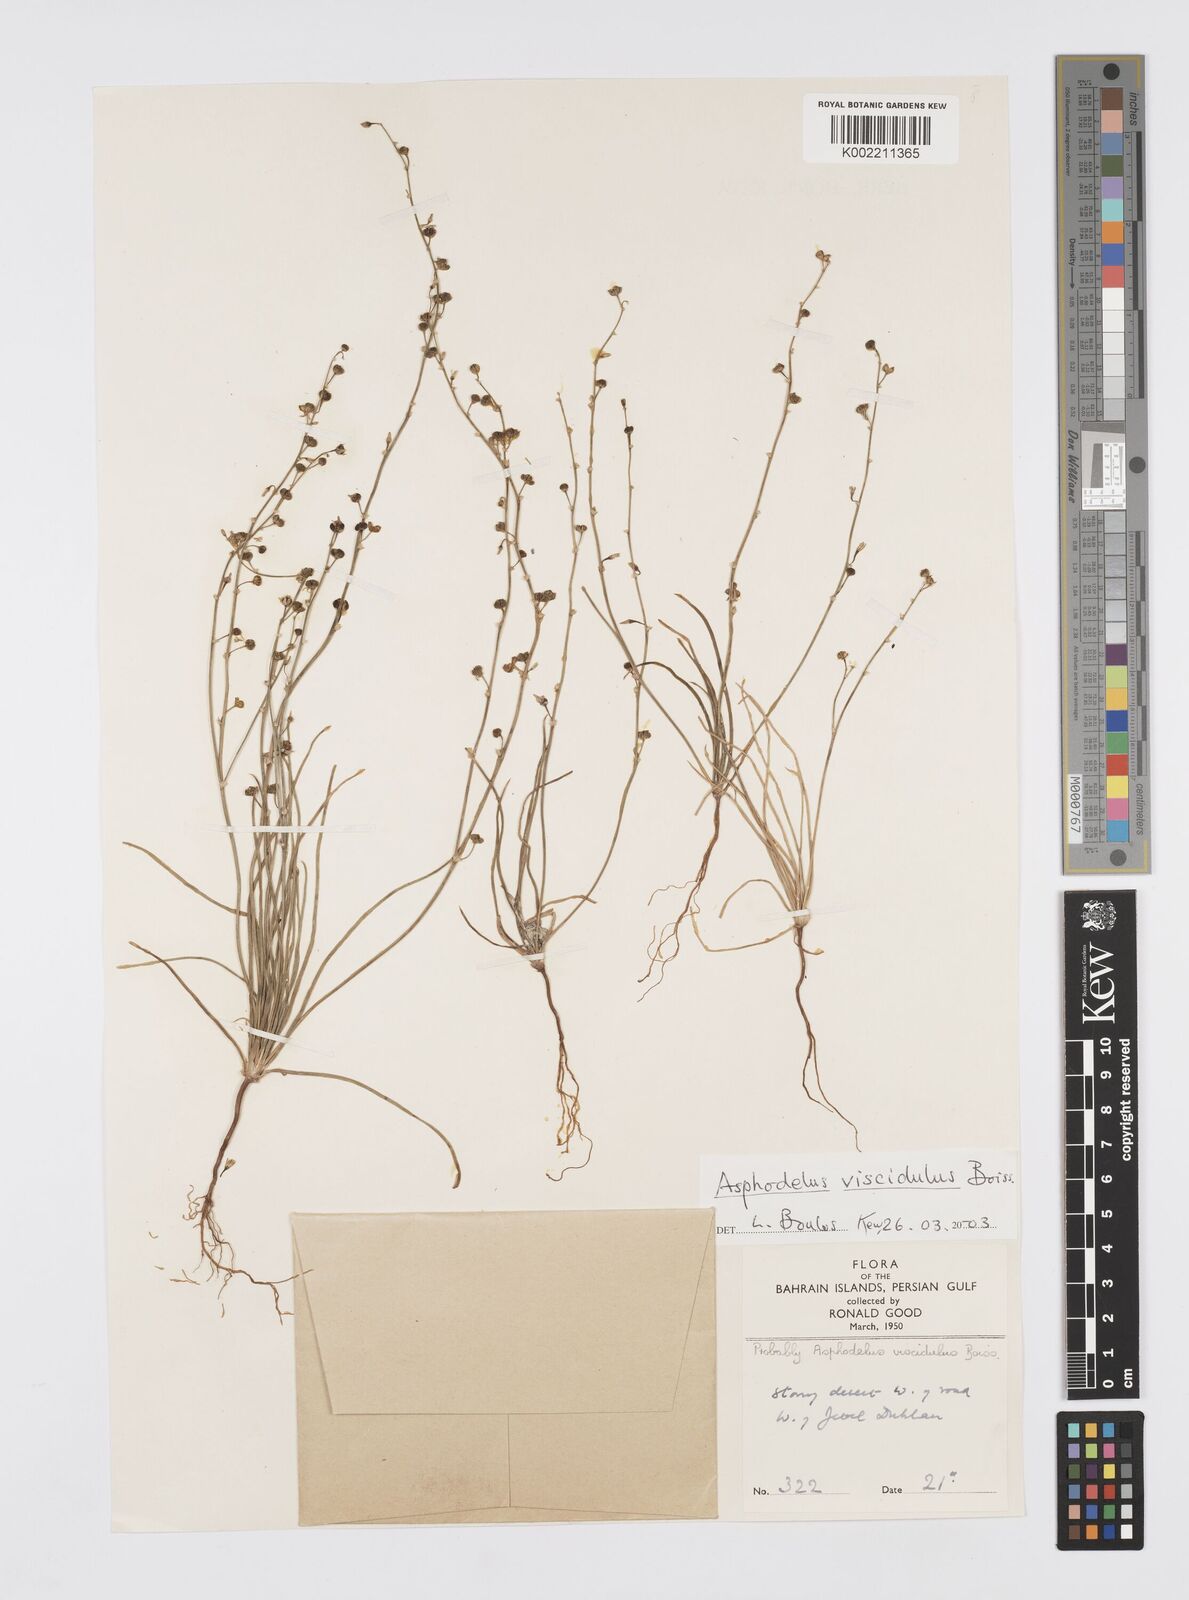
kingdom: Plantae
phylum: Tracheophyta
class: Liliopsida
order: Asparagales
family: Asphodelaceae
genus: Asphodelus
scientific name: Asphodelus viscidulus
